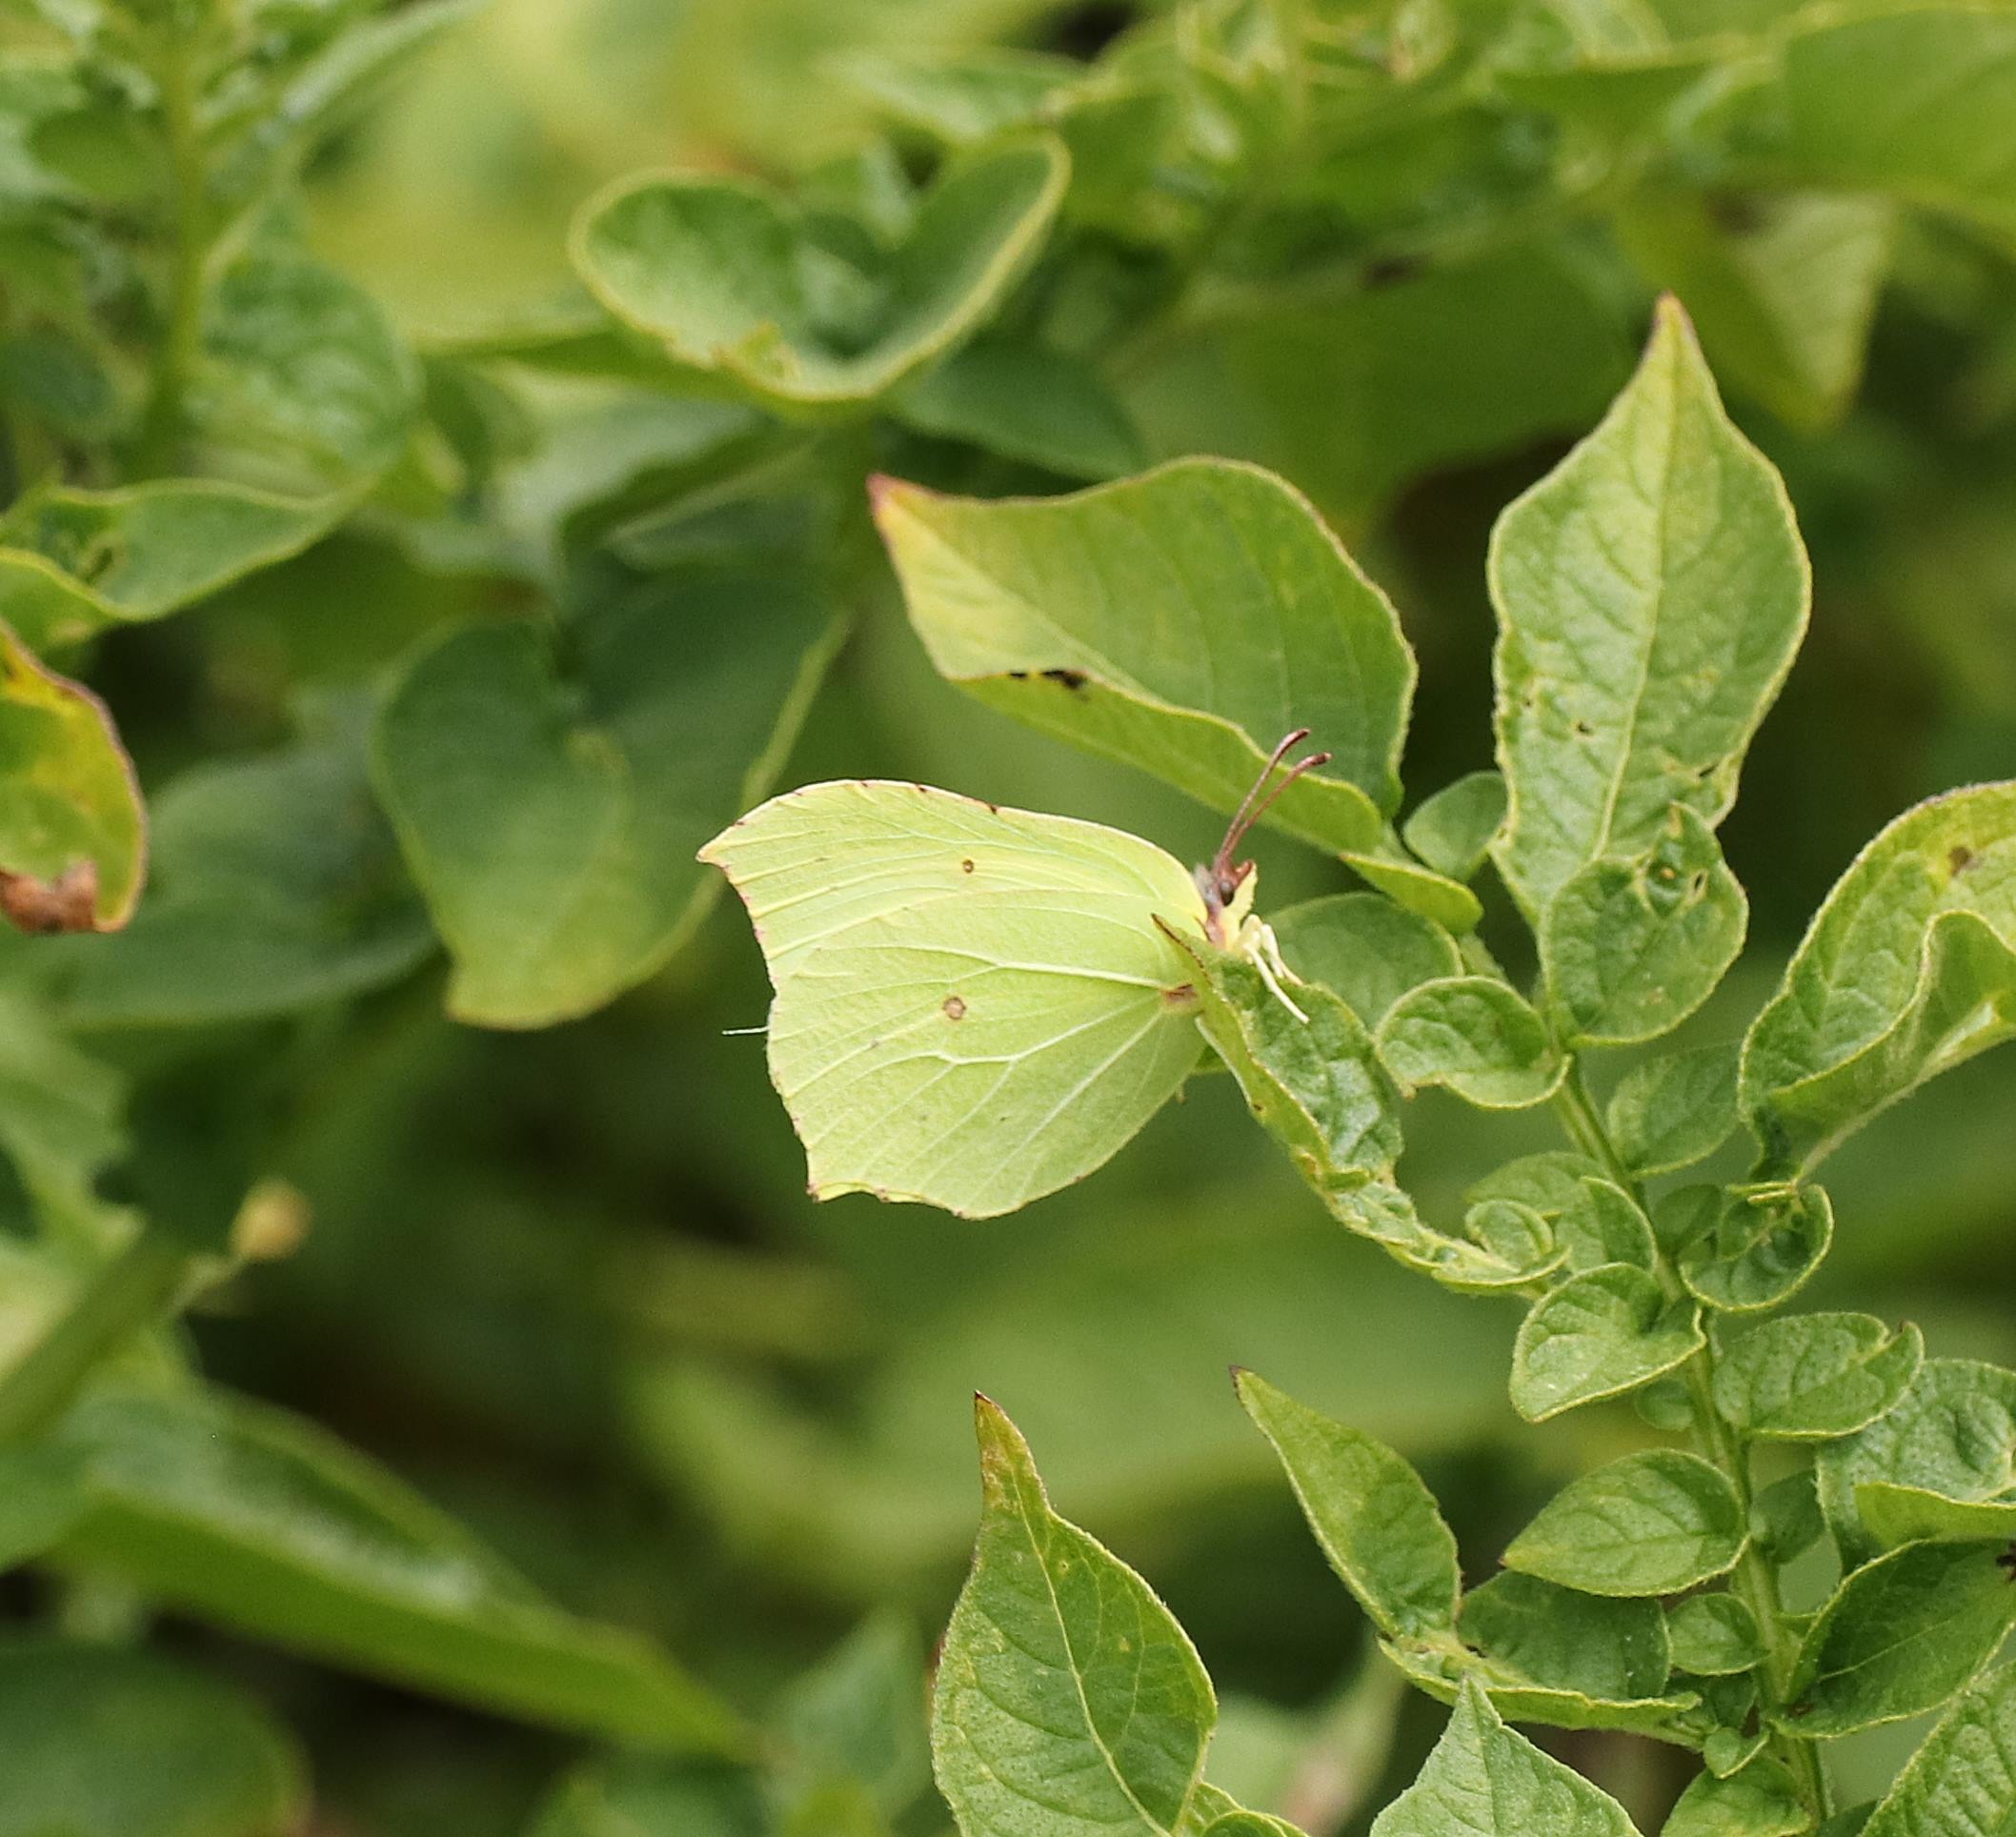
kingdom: Animalia
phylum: Arthropoda
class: Insecta
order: Lepidoptera
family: Pieridae
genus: Gonepteryx
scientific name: Gonepteryx rhamni
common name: Citronsommerfugl
